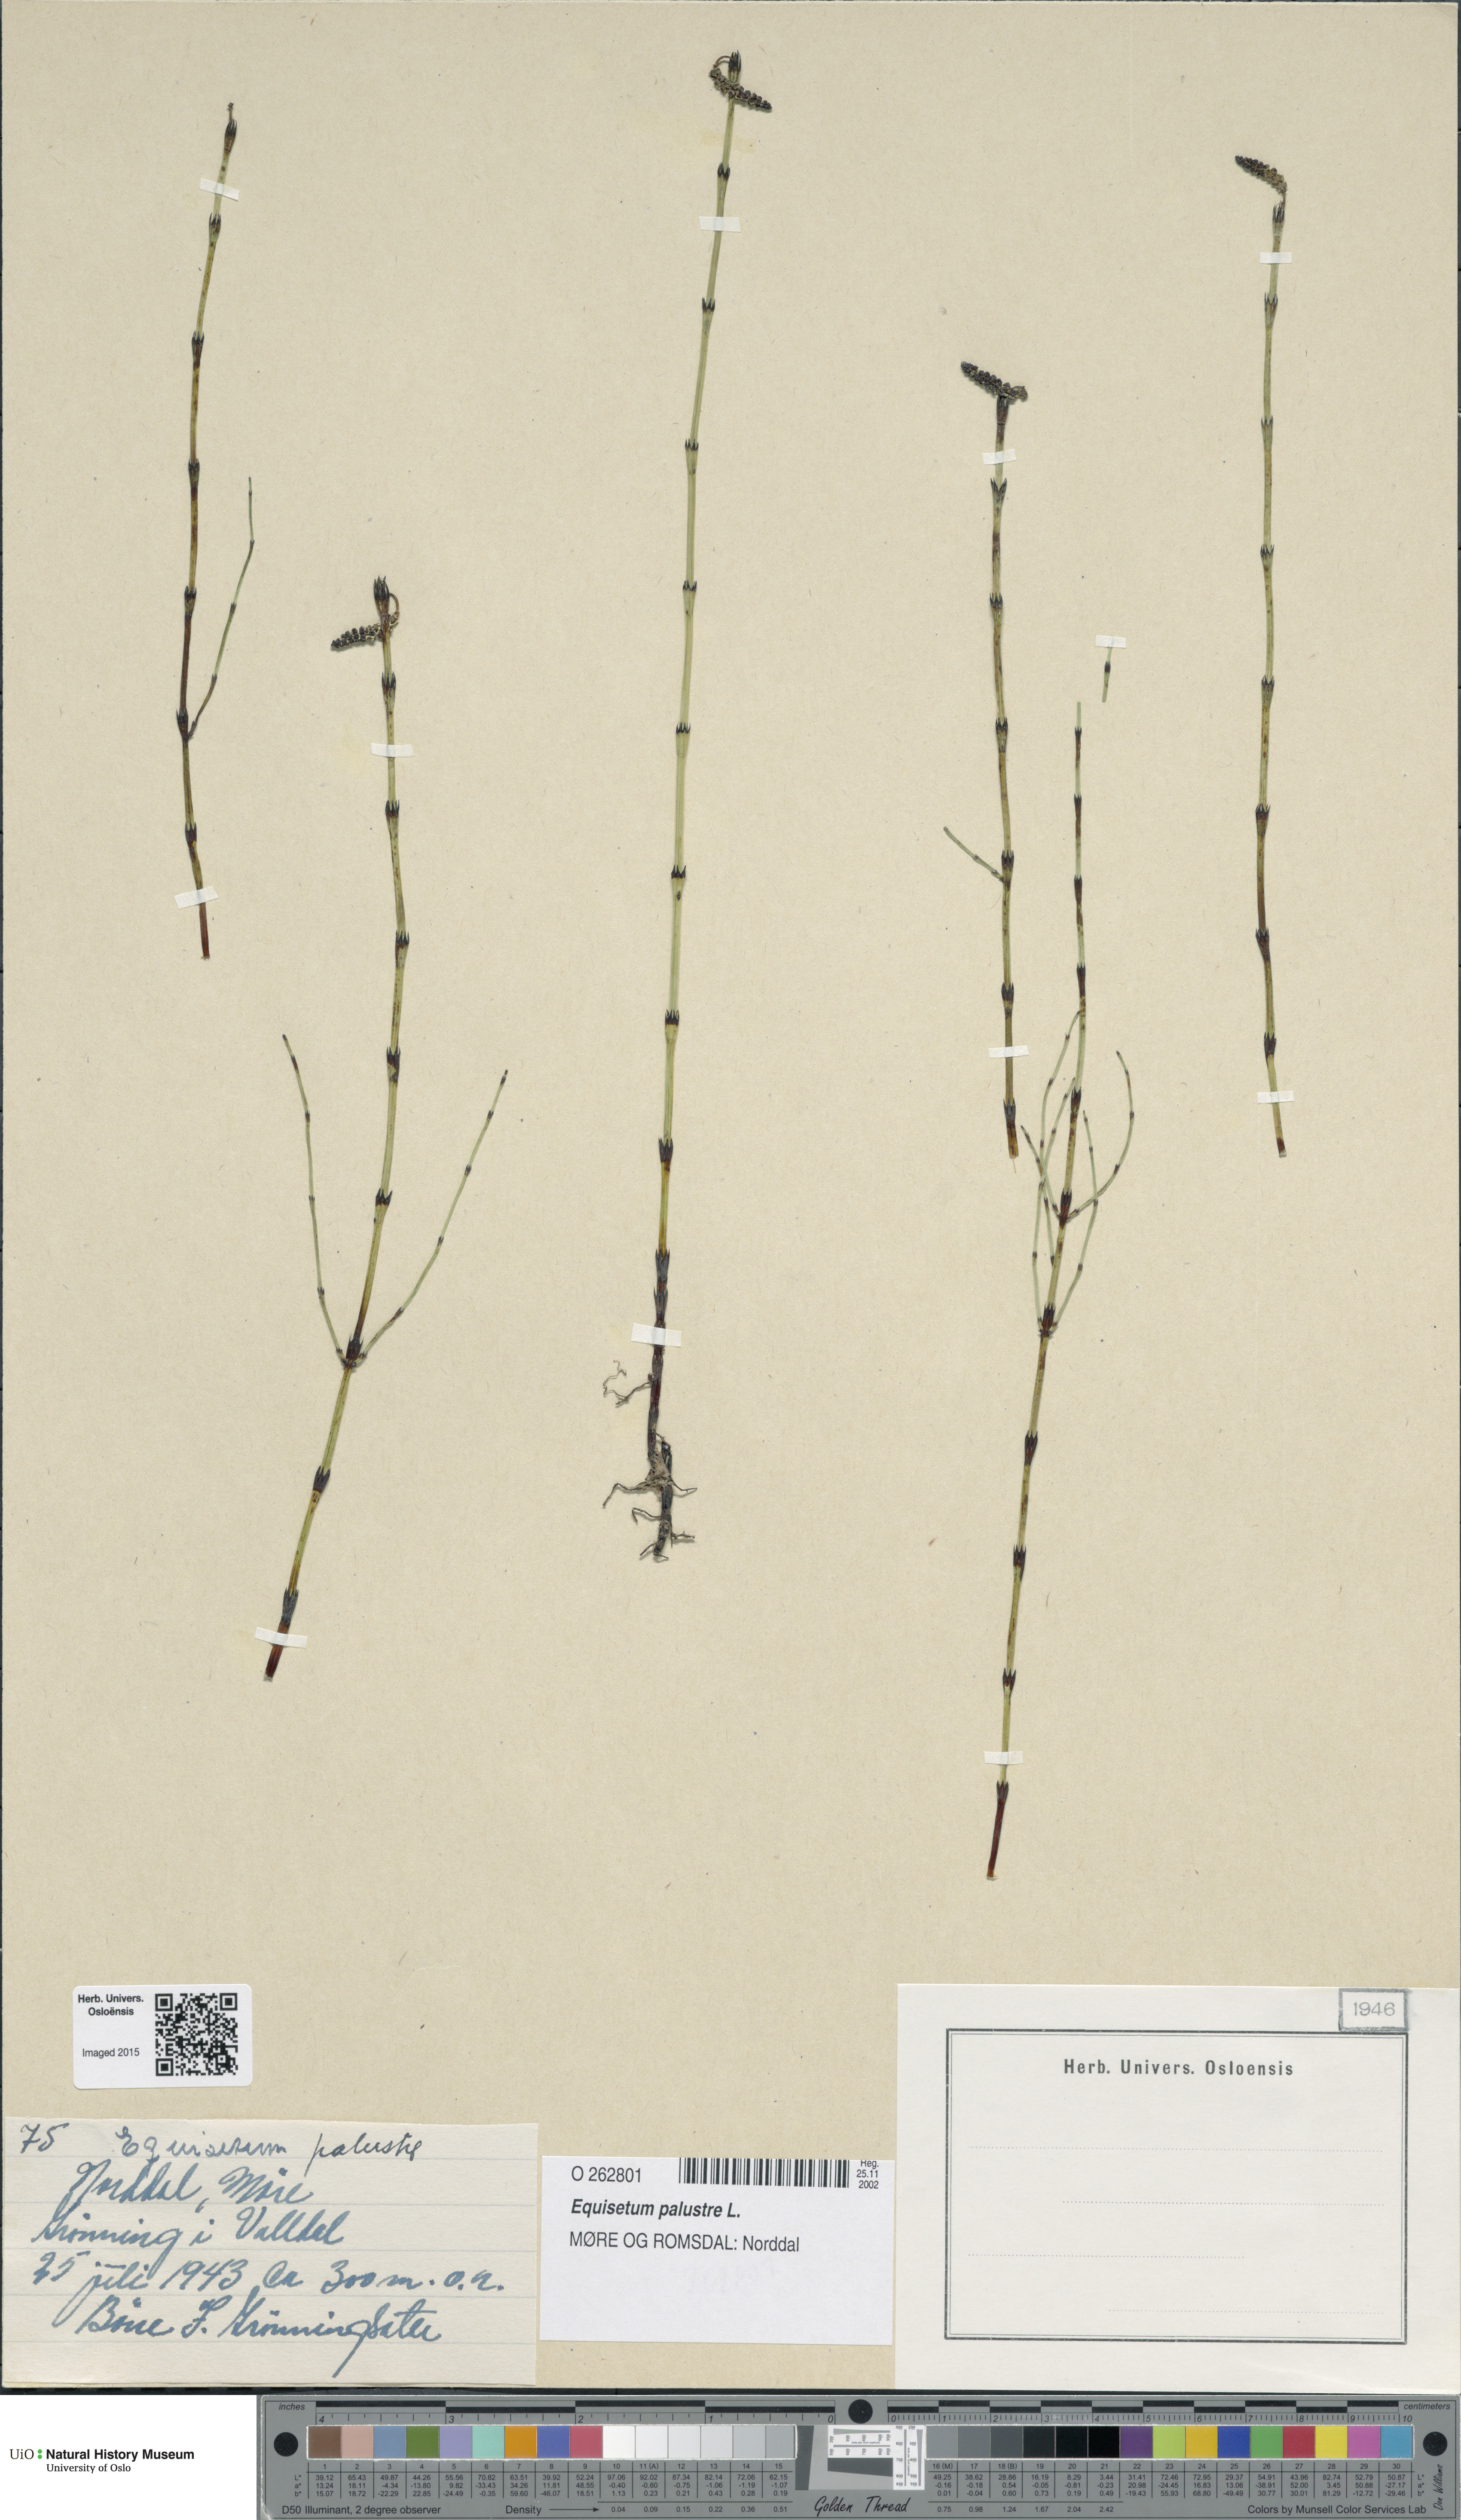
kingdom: Plantae
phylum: Tracheophyta
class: Polypodiopsida
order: Equisetales
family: Equisetaceae
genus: Equisetum
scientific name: Equisetum palustre
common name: Marsh horsetail
